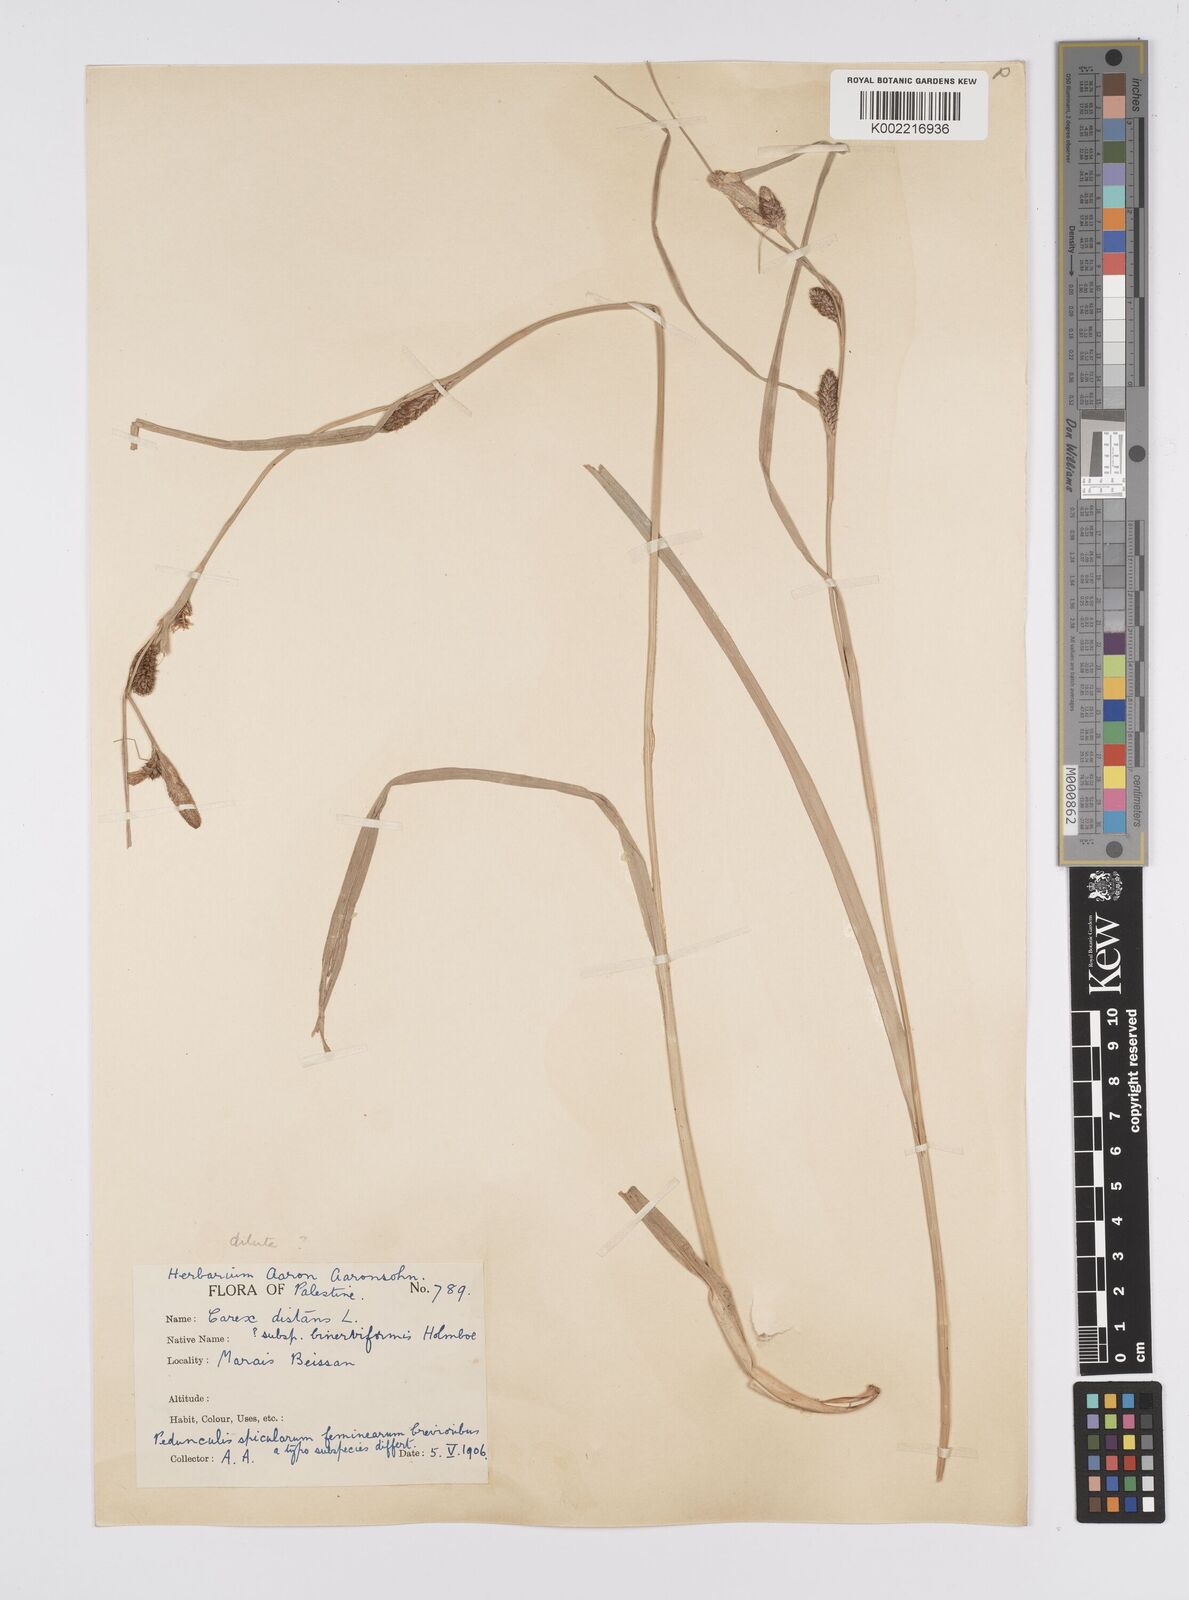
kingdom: Plantae
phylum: Tracheophyta
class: Liliopsida
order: Poales
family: Cyperaceae
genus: Carex
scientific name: Carex distans
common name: Distant sedge
